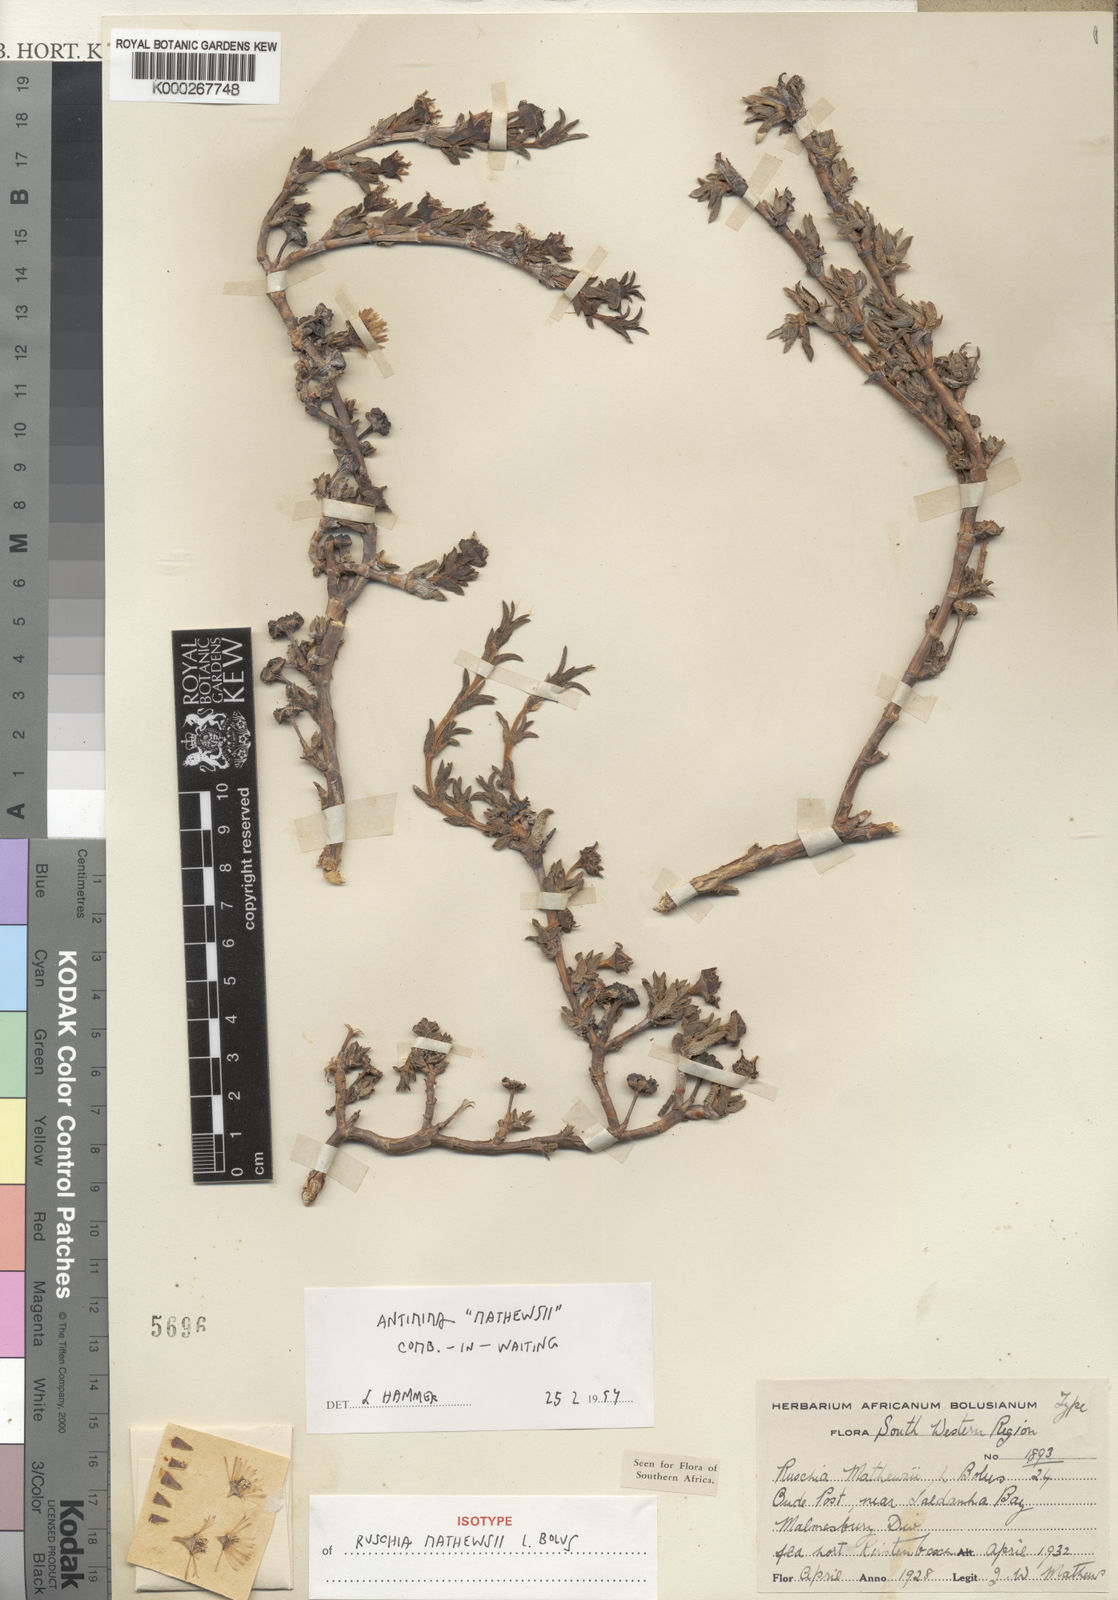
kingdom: Plantae
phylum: Tracheophyta
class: Magnoliopsida
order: Caryophyllales
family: Aizoaceae
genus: Antimima
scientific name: Antimima mucronata
